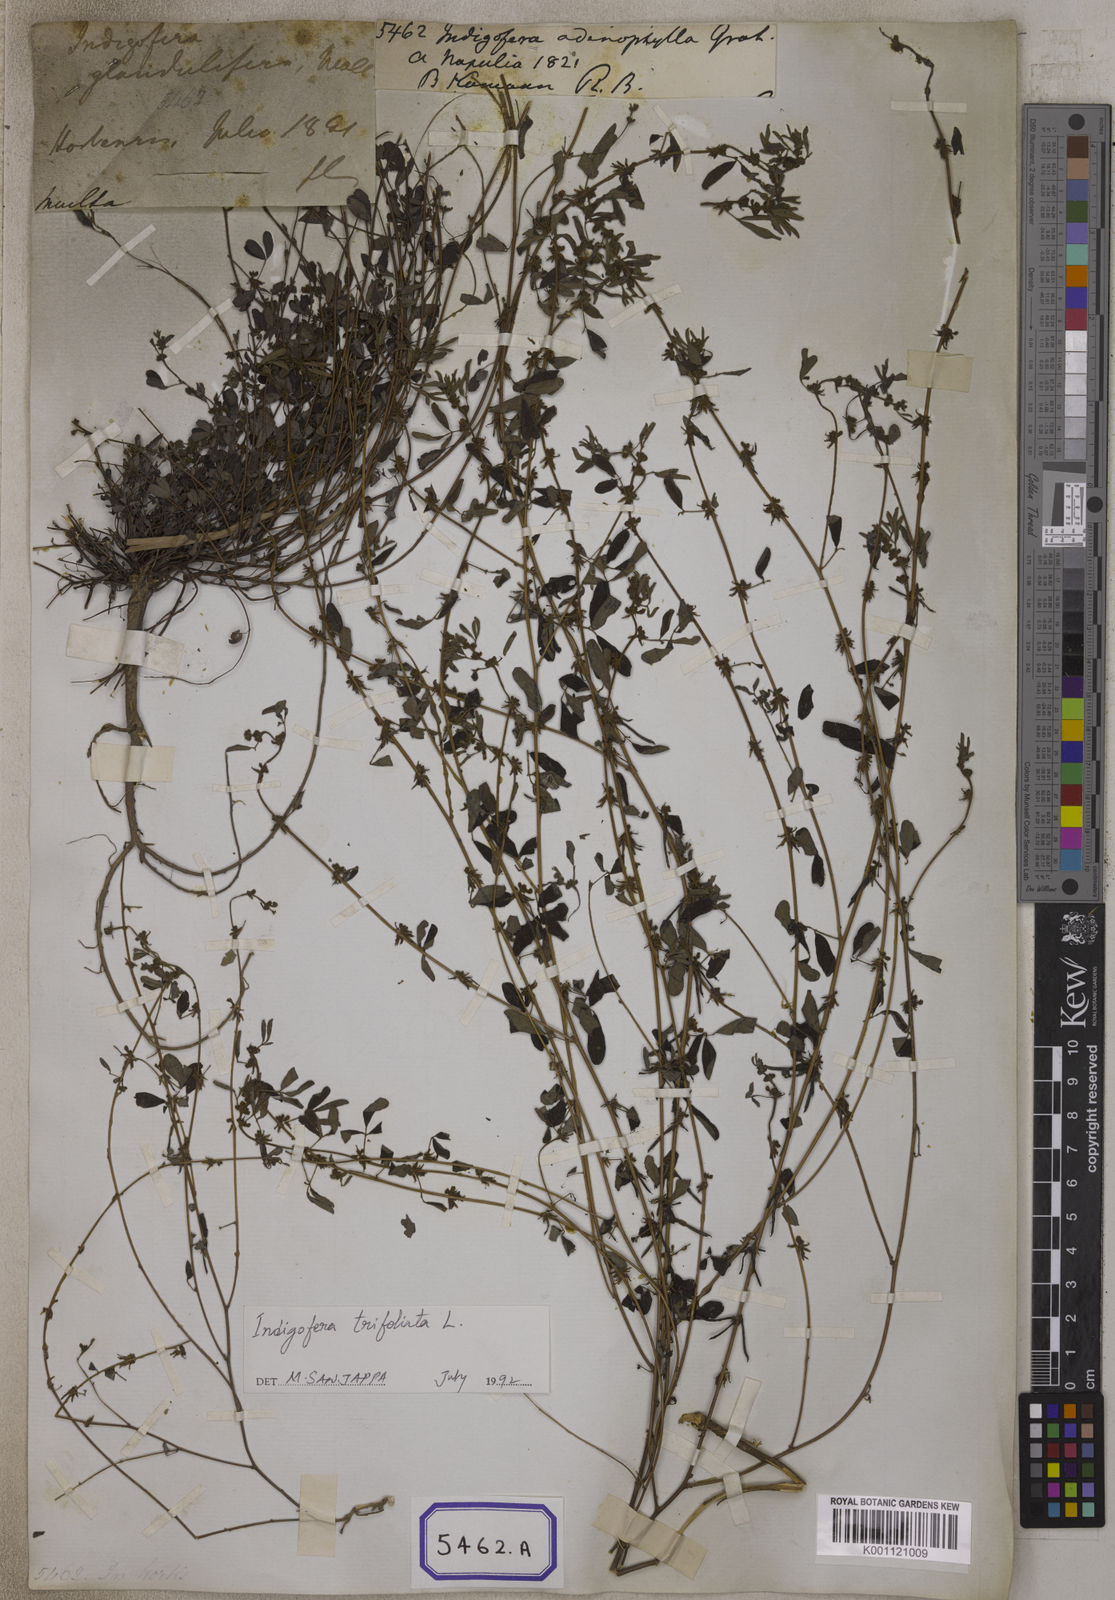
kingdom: Plantae
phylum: Tracheophyta
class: Magnoliopsida
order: Fabales
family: Fabaceae
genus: Indigofera
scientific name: Indigofera trifoliata
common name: Threeleaf indigo
